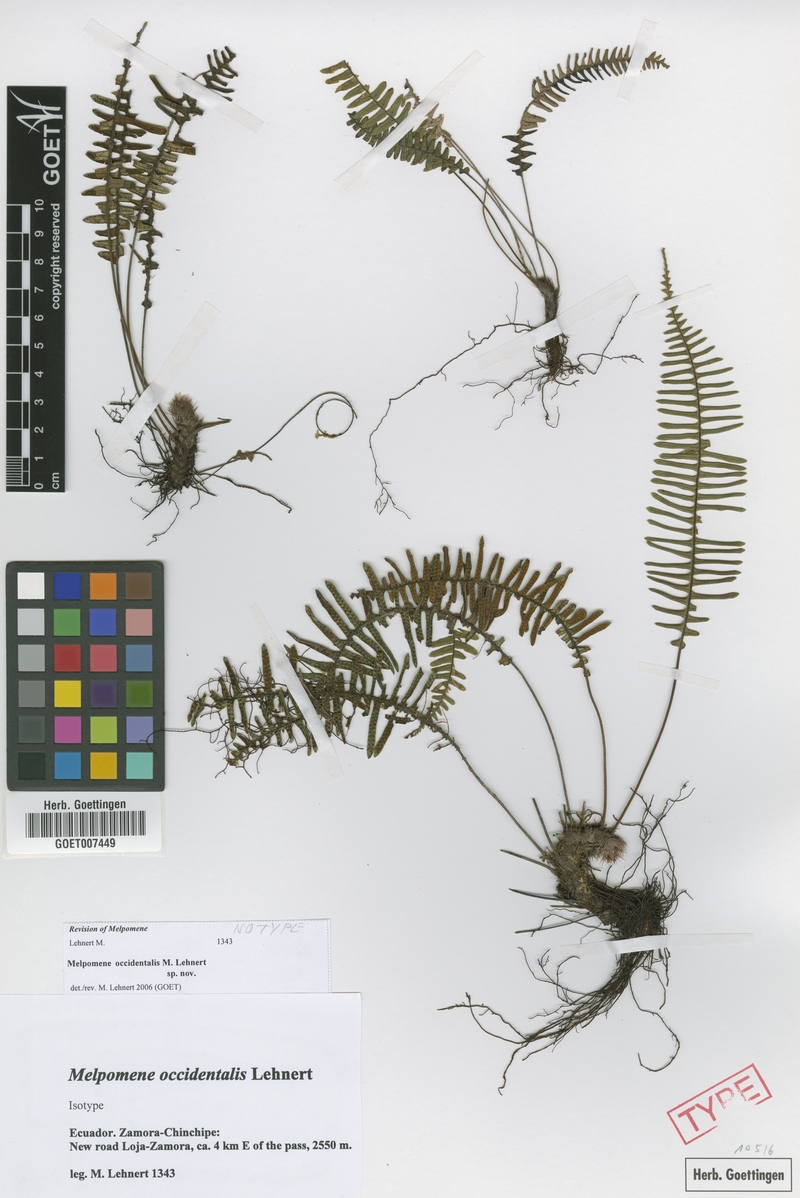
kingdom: Plantae
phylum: Tracheophyta
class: Polypodiopsida
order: Polypodiales
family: Polypodiaceae
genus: Melpomene
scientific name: Melpomene occidentalis
